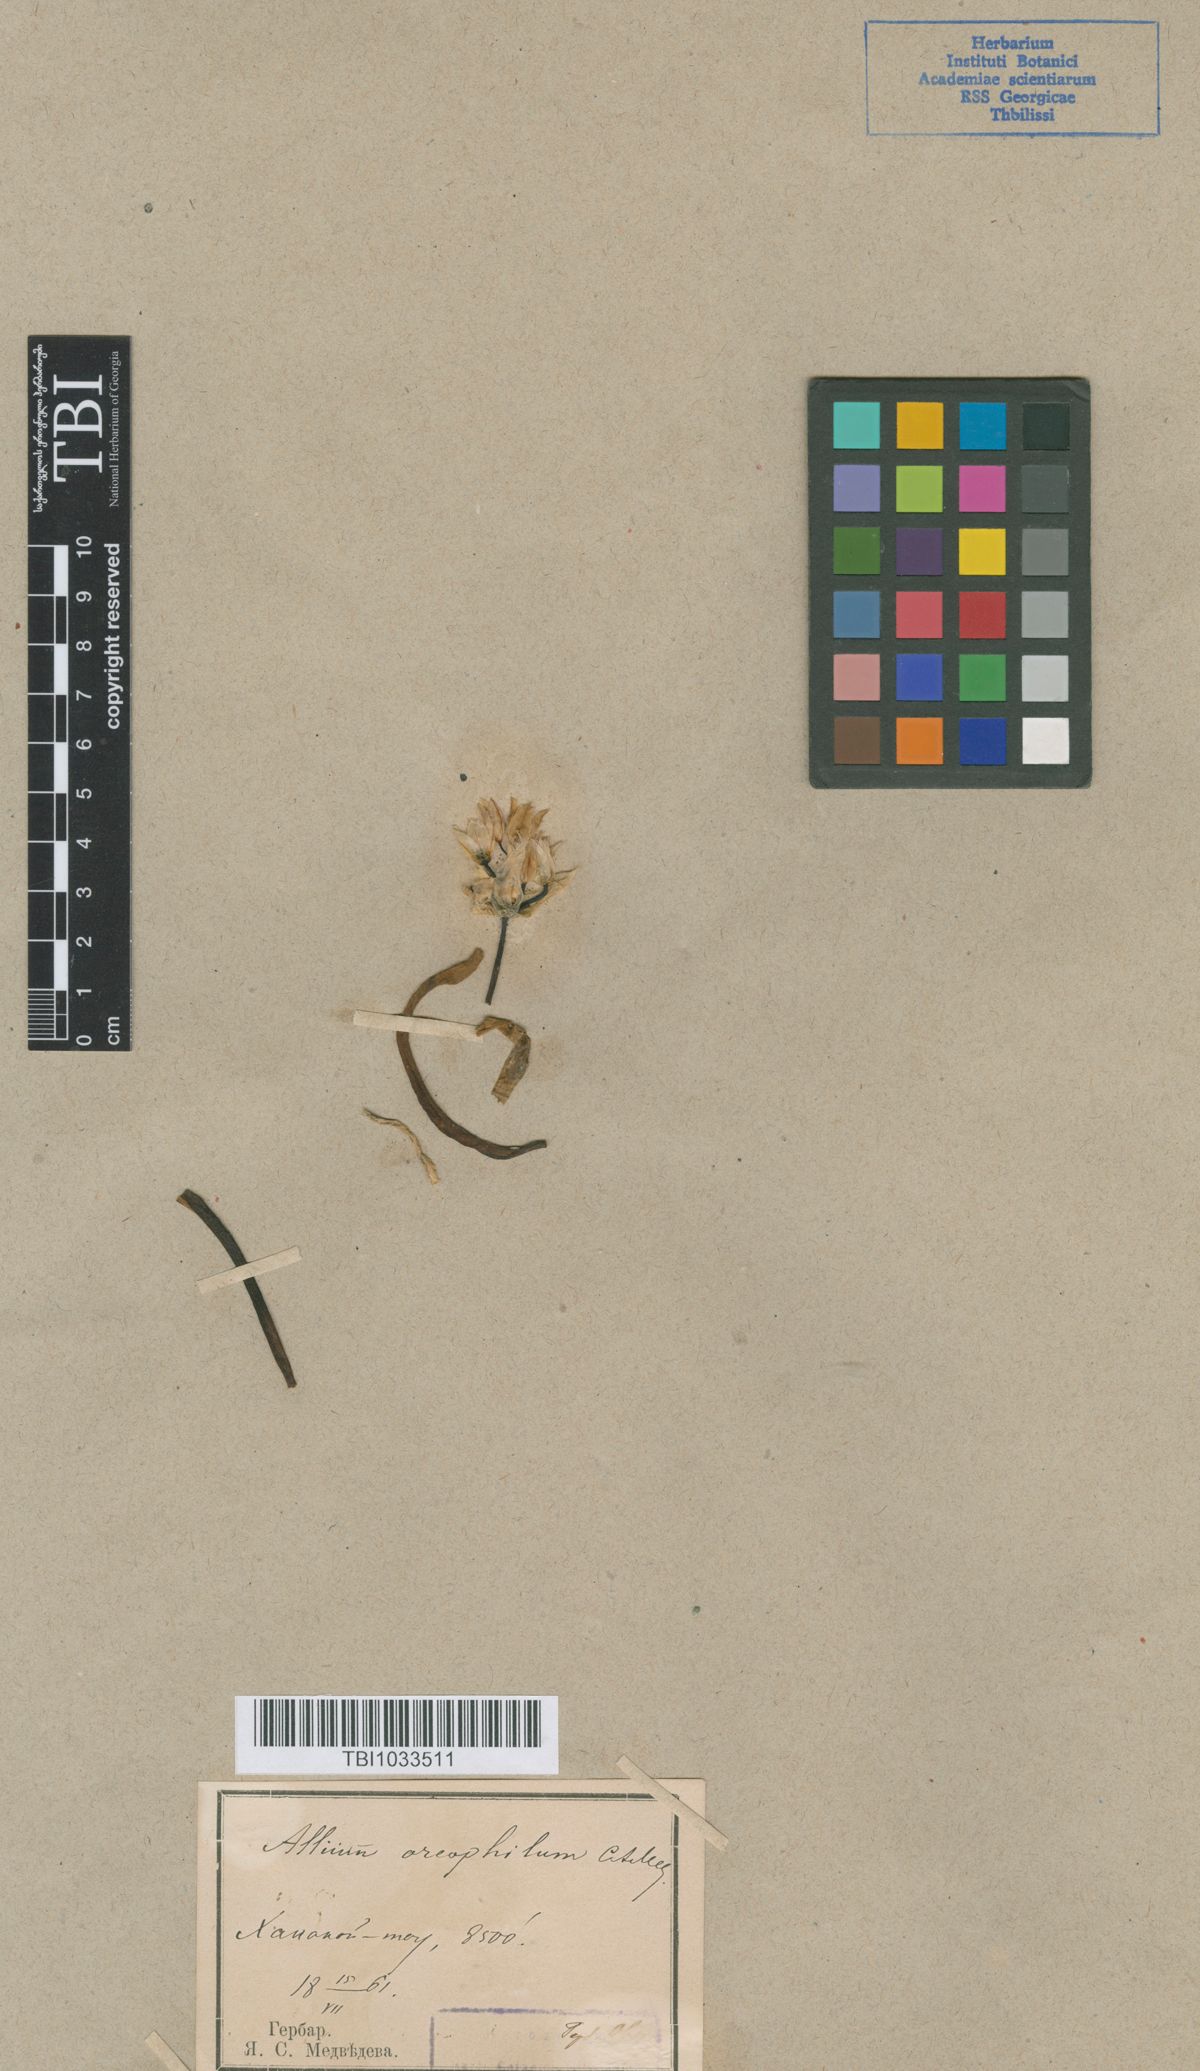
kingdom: Plantae
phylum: Tracheophyta
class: Liliopsida
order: Asparagales
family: Amaryllidaceae
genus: Allium
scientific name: Allium oreophilum
